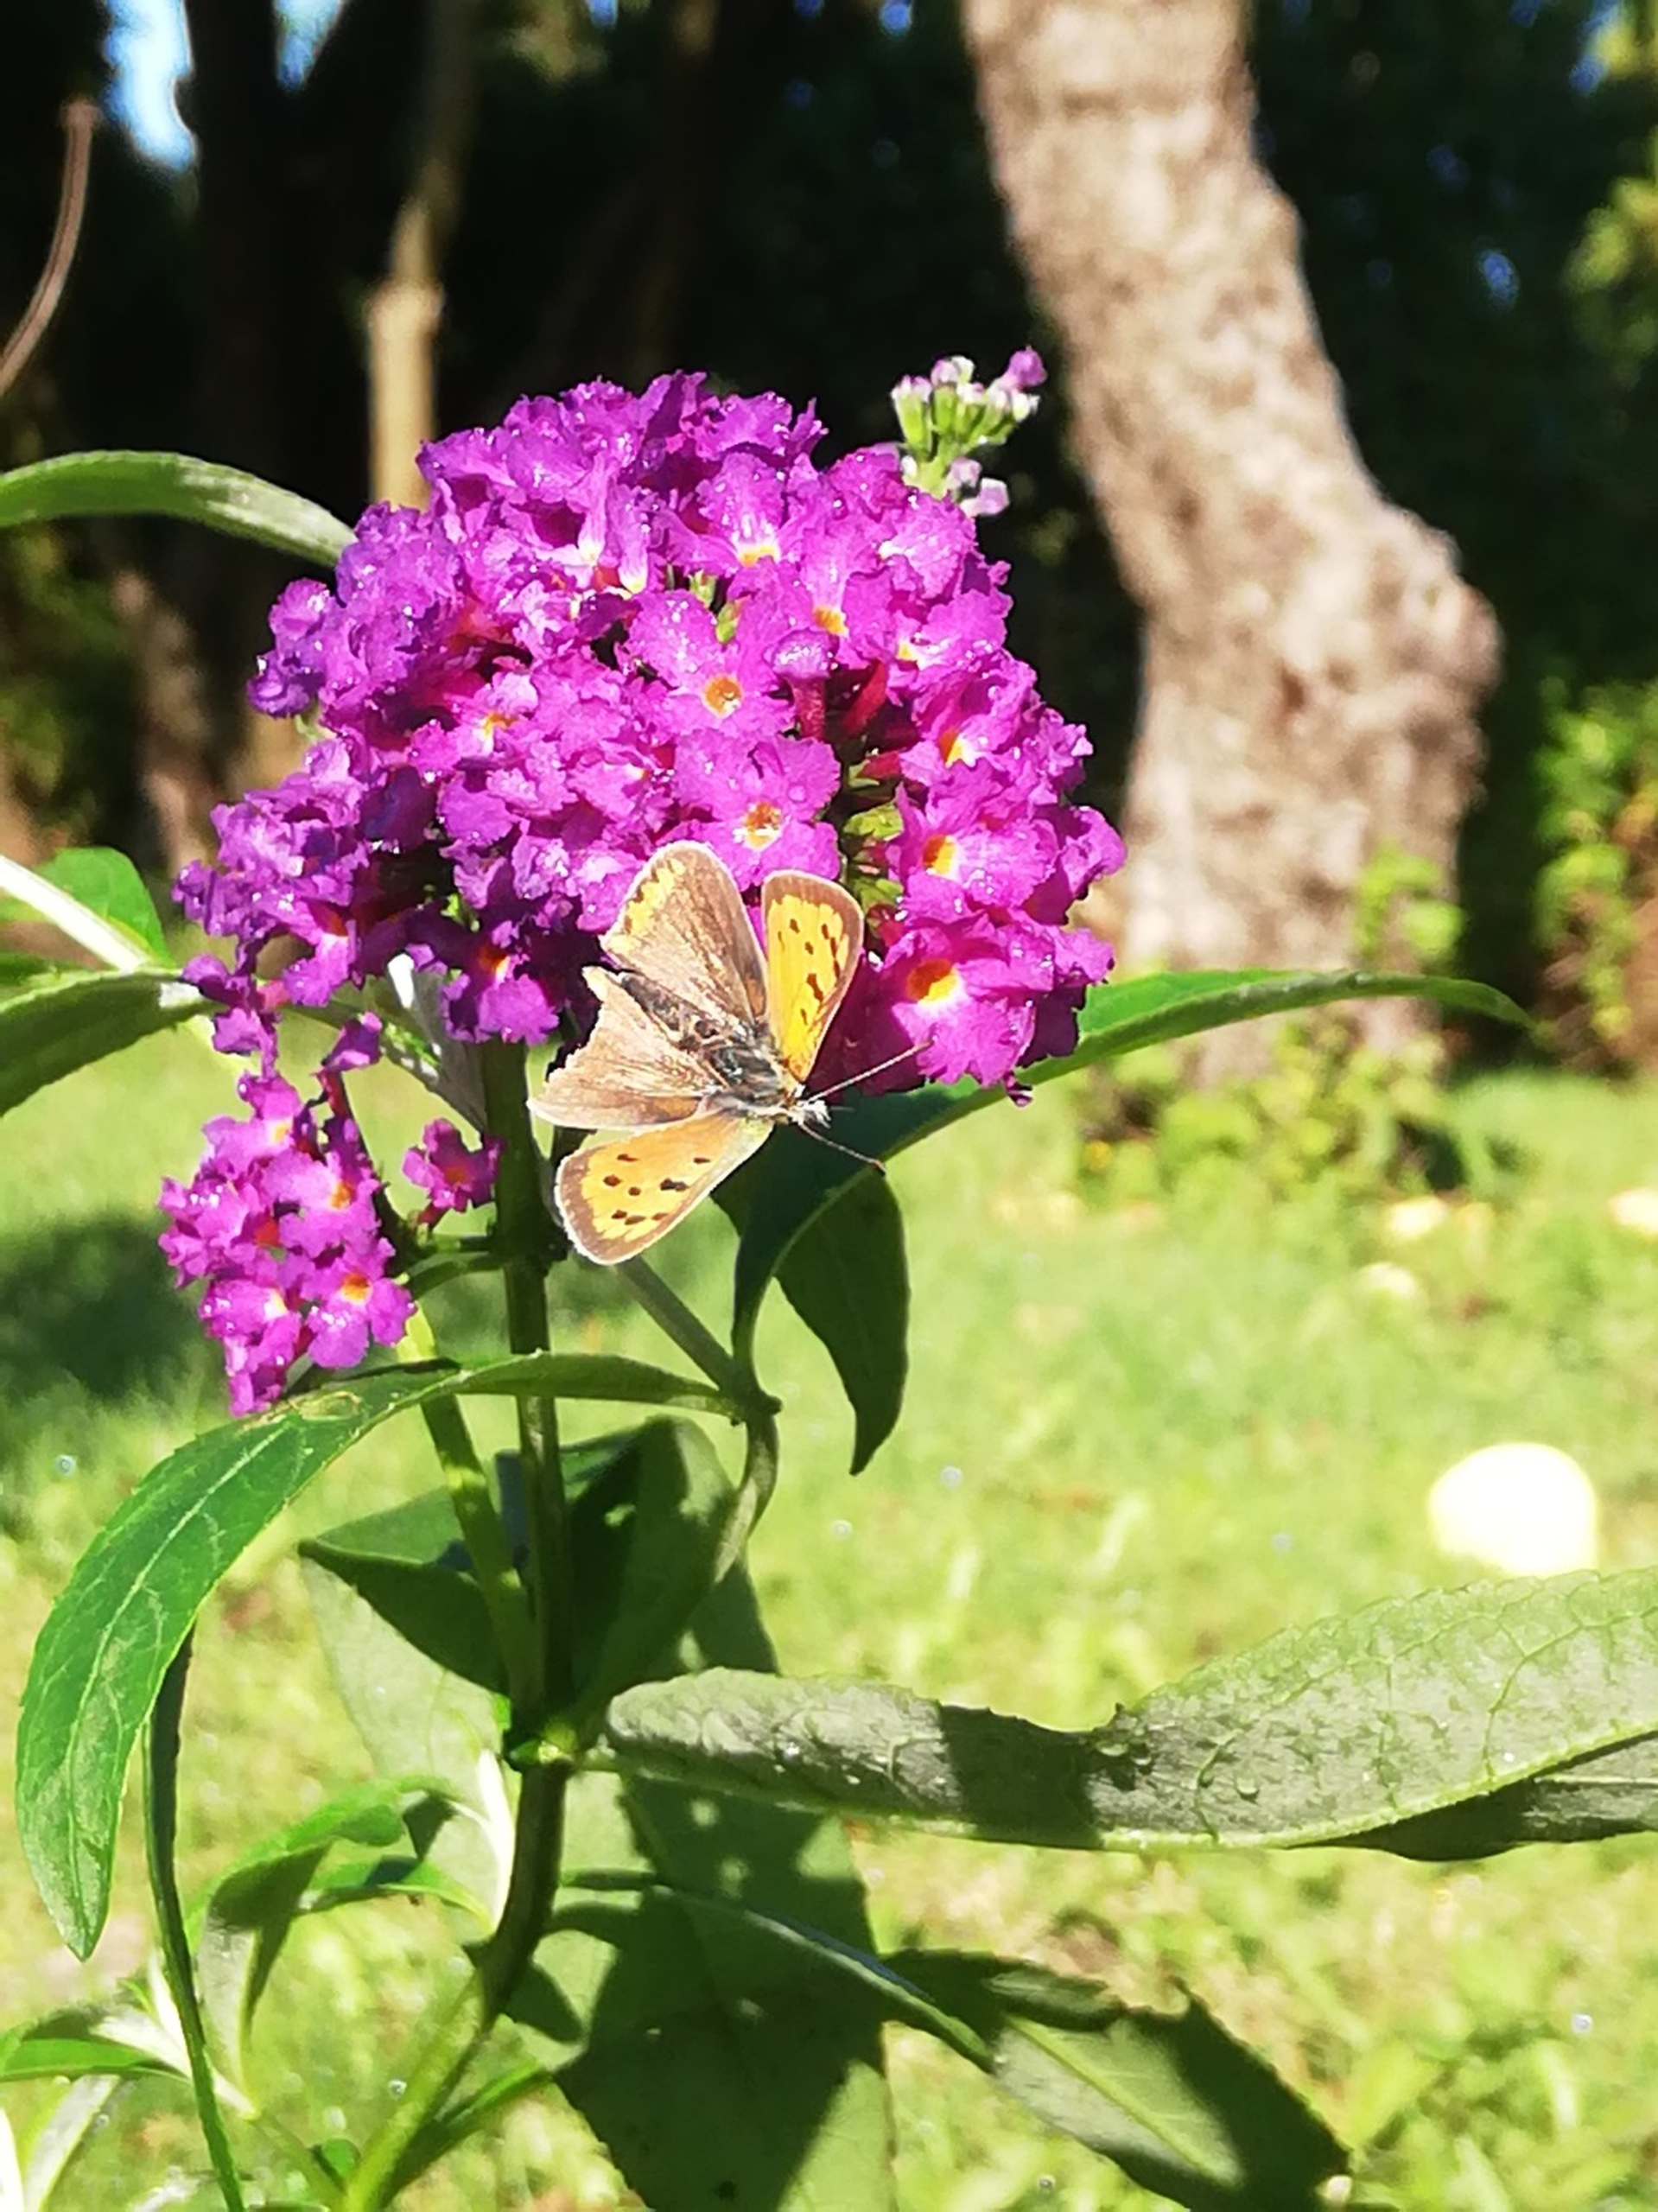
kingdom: Animalia
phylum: Arthropoda
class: Insecta
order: Lepidoptera
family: Lycaenidae
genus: Lycaena
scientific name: Lycaena phlaeas
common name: Lille ildfugl
